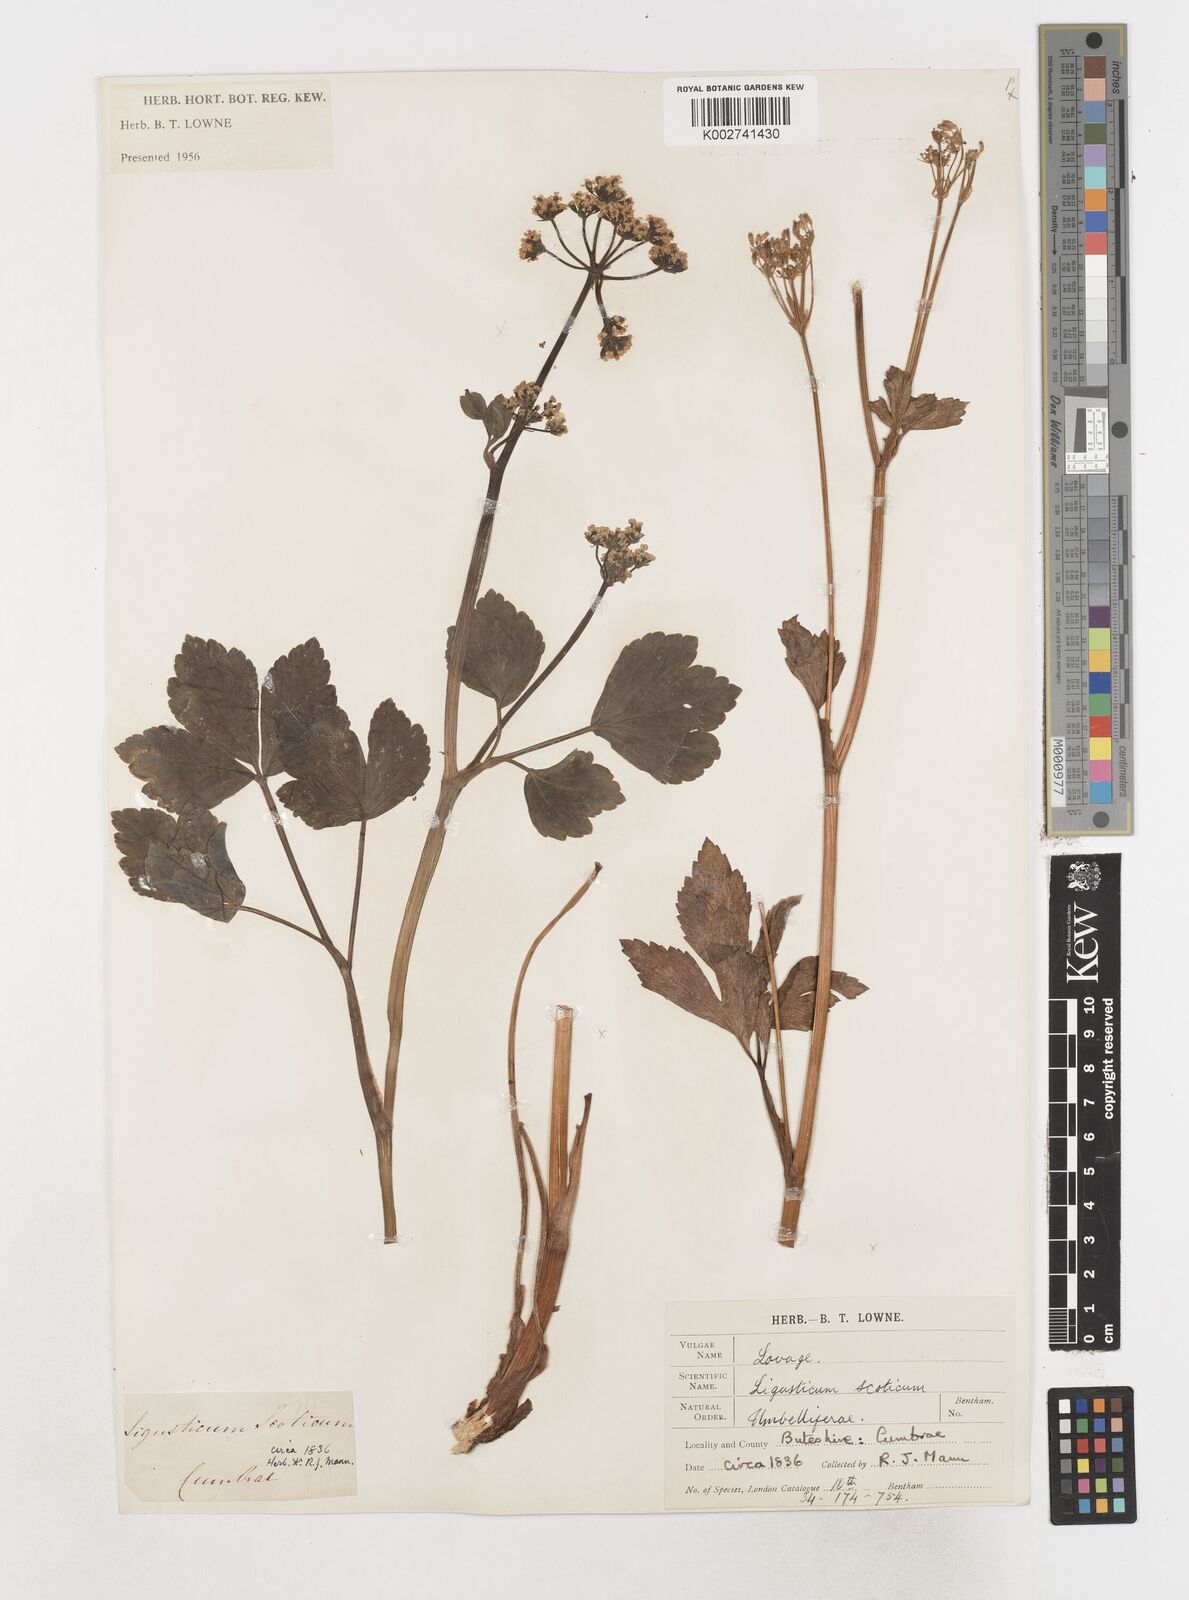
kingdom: Plantae
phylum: Tracheophyta
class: Magnoliopsida
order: Apiales
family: Apiaceae
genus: Ligusticum
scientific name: Ligusticum scothicum
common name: Beach lovage
